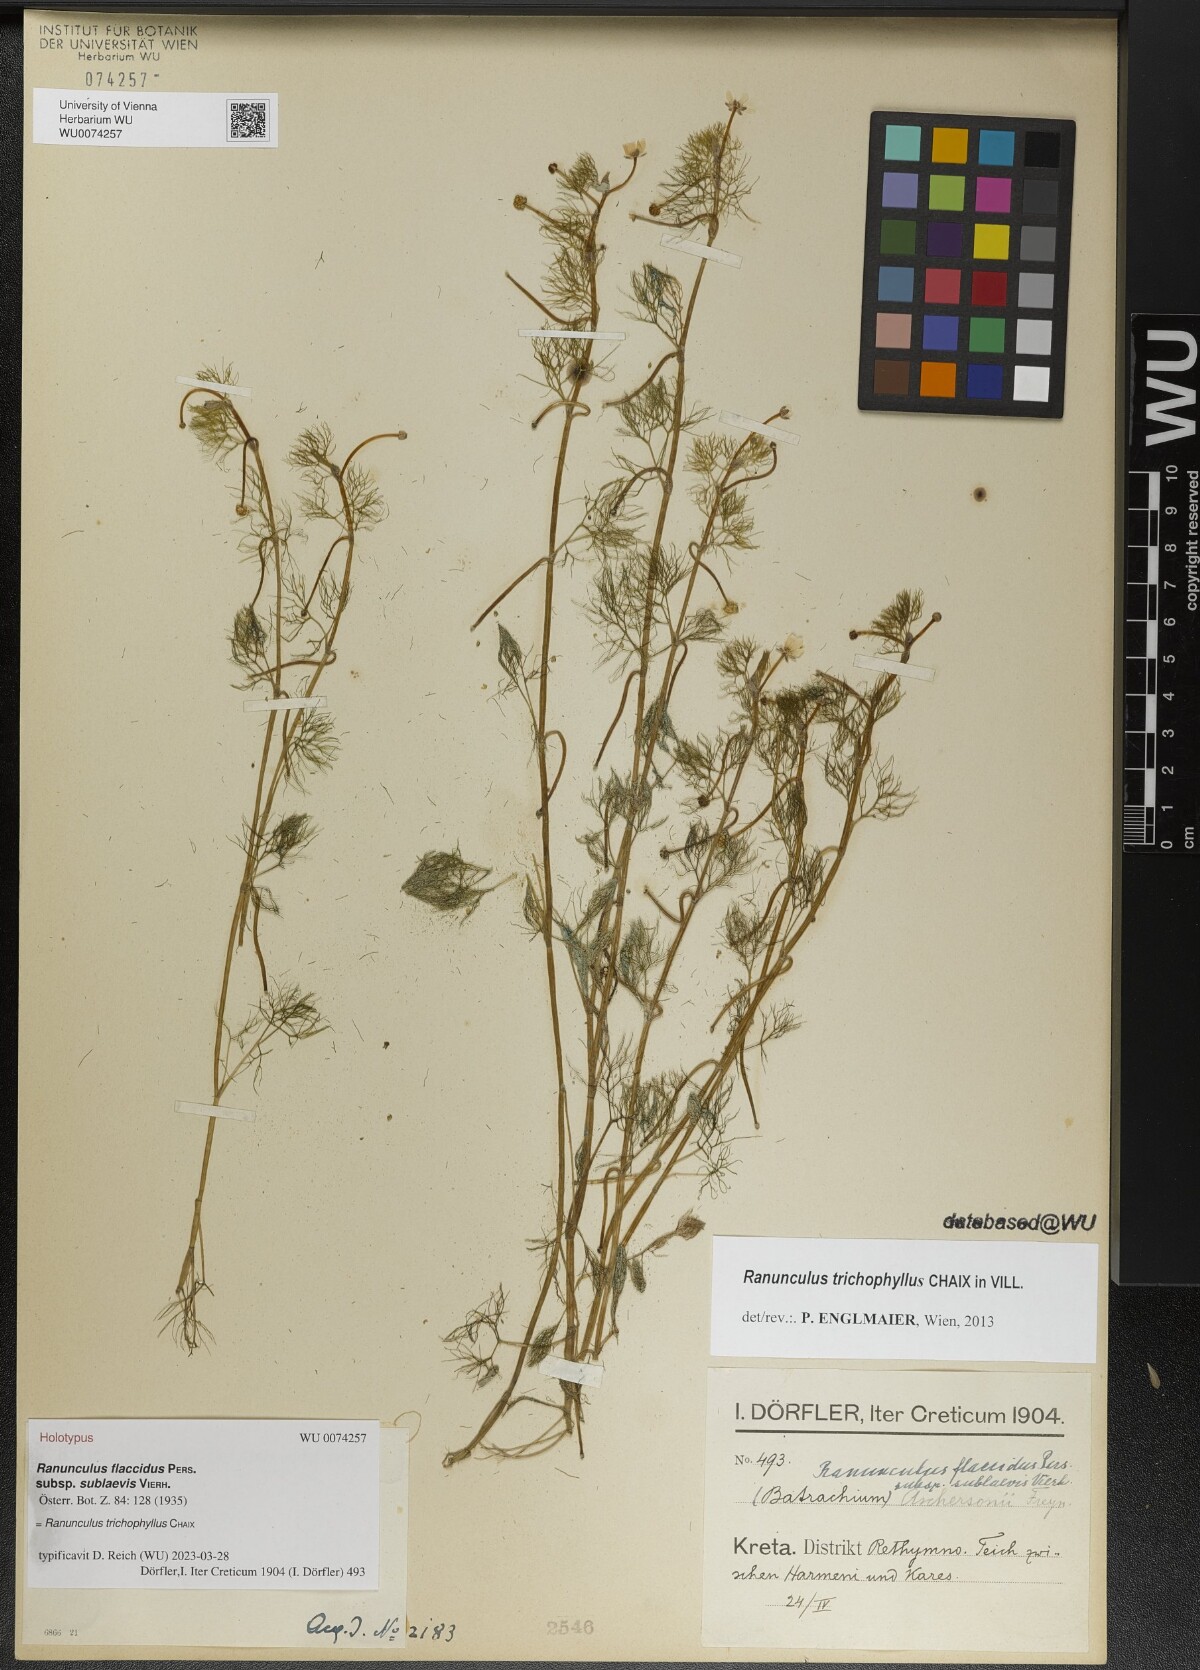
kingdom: Plantae
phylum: Tracheophyta
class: Magnoliopsida
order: Ranunculales
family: Ranunculaceae
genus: Ranunculus
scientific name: Ranunculus trichophyllus
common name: Thread-leaved water-crowfoot
